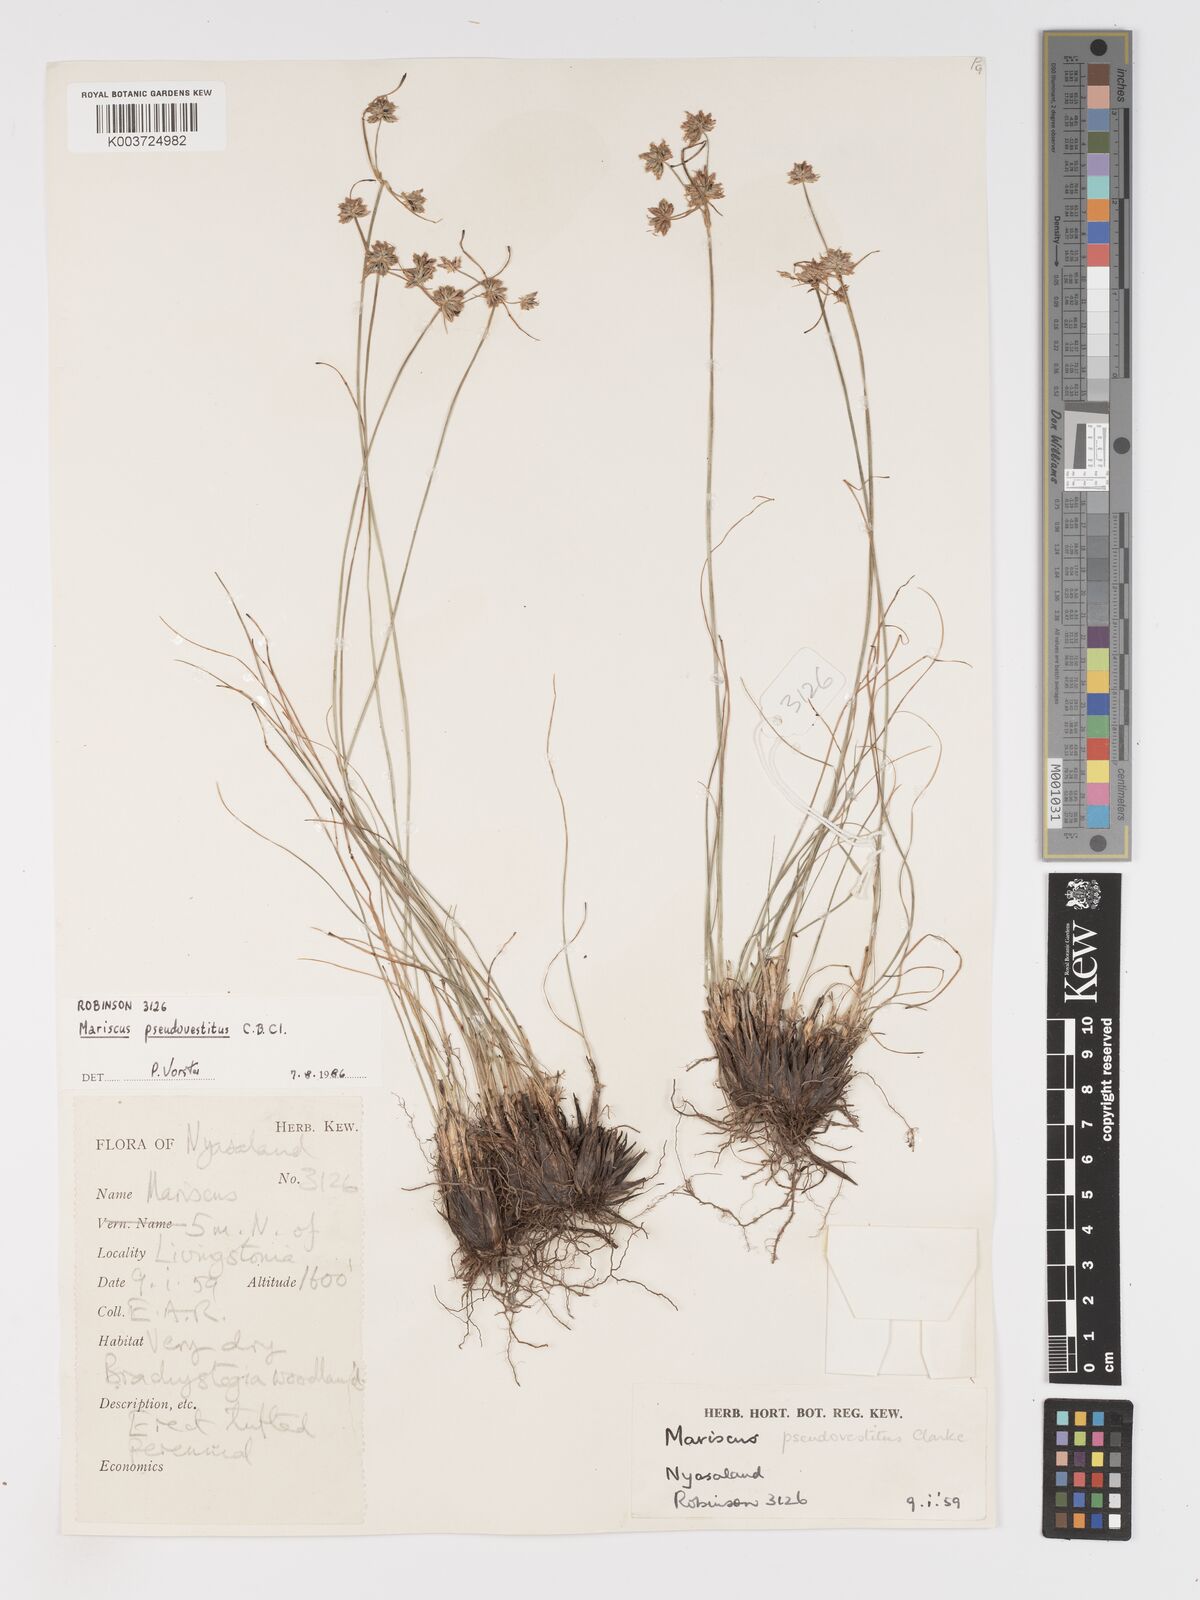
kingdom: Plantae
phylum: Tracheophyta
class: Liliopsida
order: Poales
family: Cyperaceae
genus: Cyperus
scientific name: Cyperus pseudovestitus
